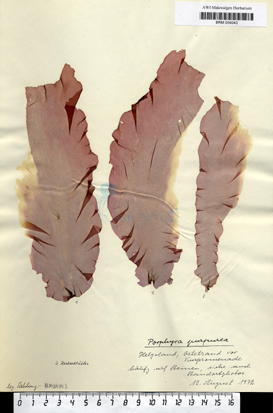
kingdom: Plantae
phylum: Rhodophyta
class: Bangiophyceae
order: Bangiales
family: Bangiaceae
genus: Porphyra
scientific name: Porphyra purpurea
